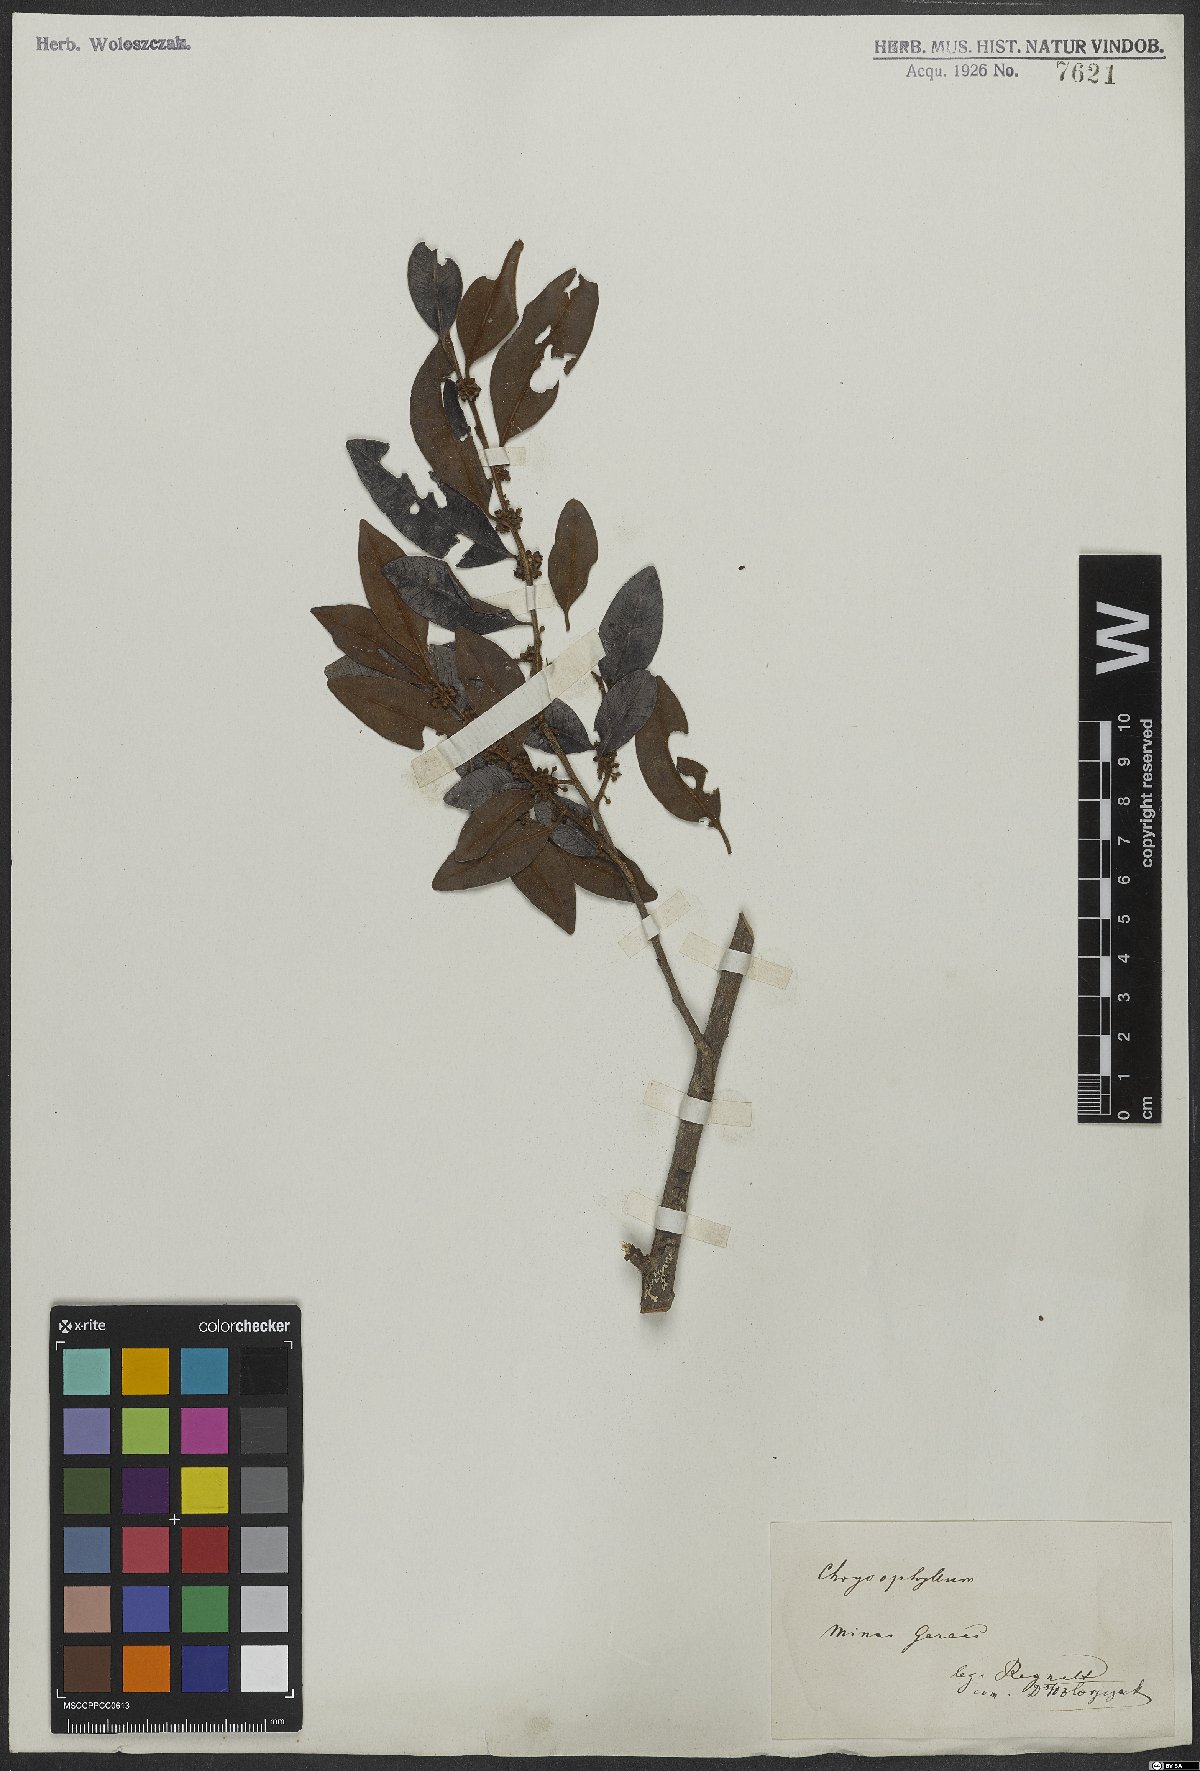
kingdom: Plantae
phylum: Tracheophyta
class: Magnoliopsida
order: Ericales
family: Sapotaceae
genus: Chrysophyllum
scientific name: Chrysophyllum rufum
